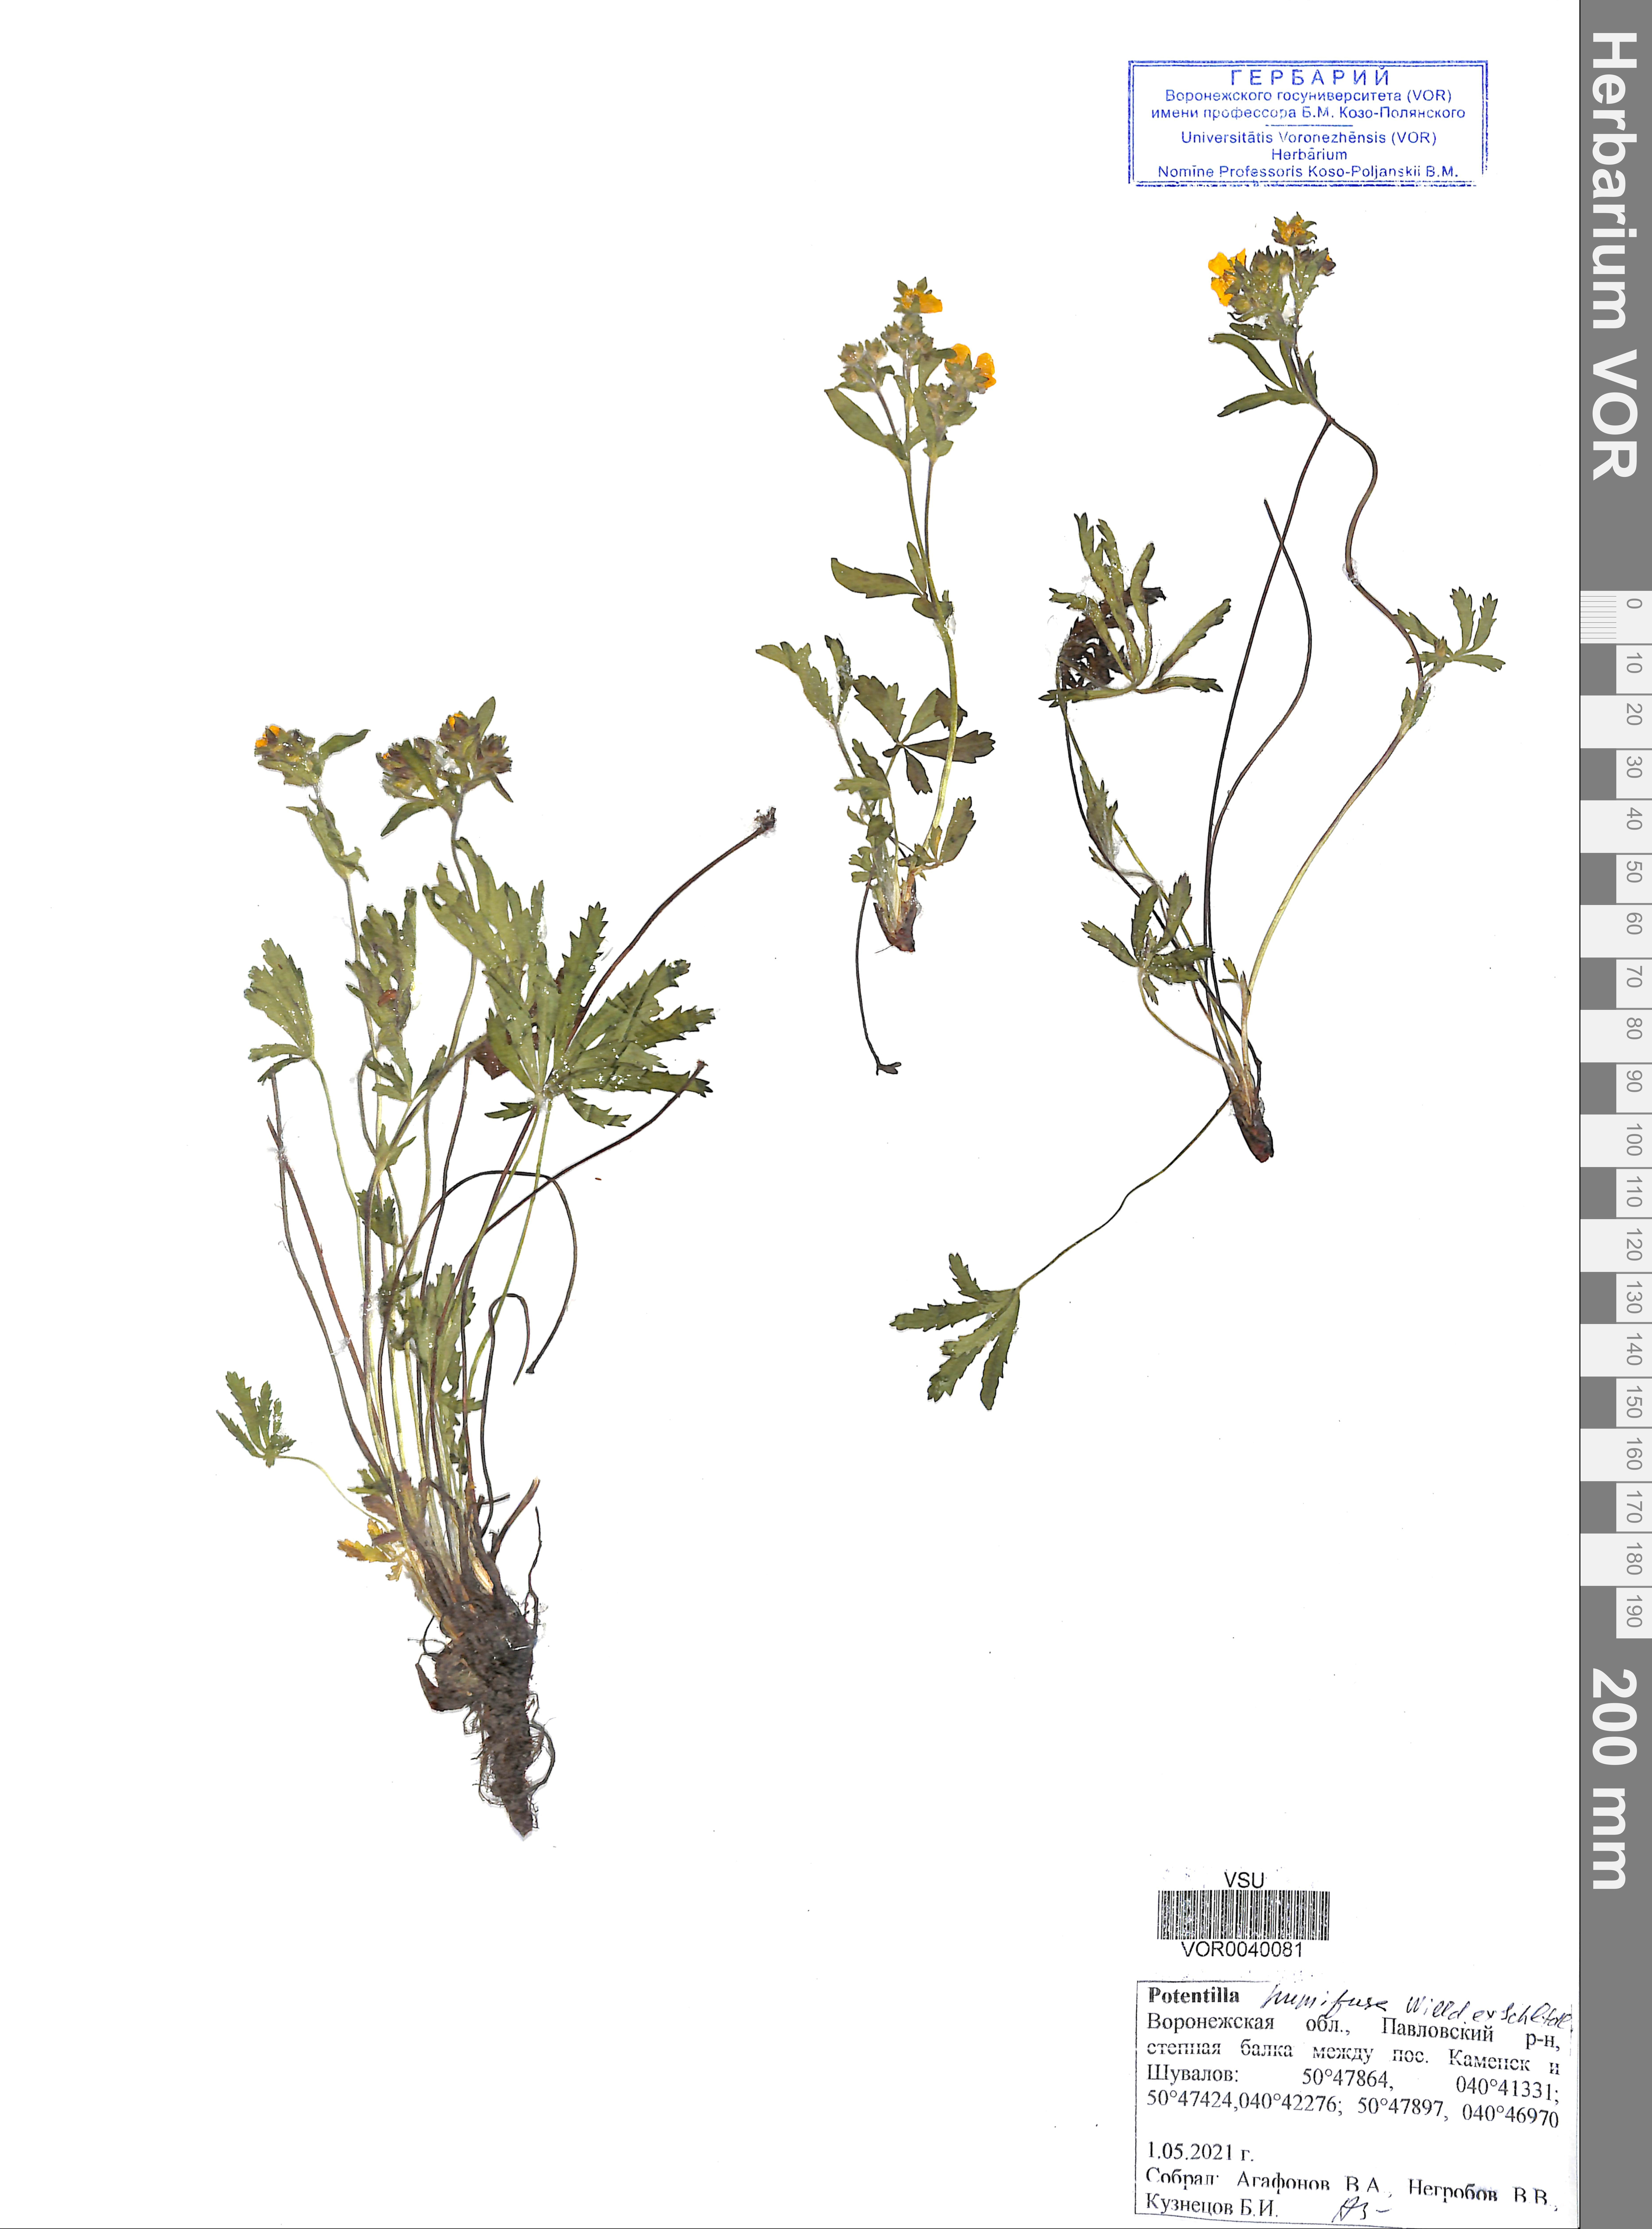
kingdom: Plantae
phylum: Tracheophyta
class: Magnoliopsida
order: Rosales
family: Rosaceae
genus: Potentilla
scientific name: Potentilla humifusa
